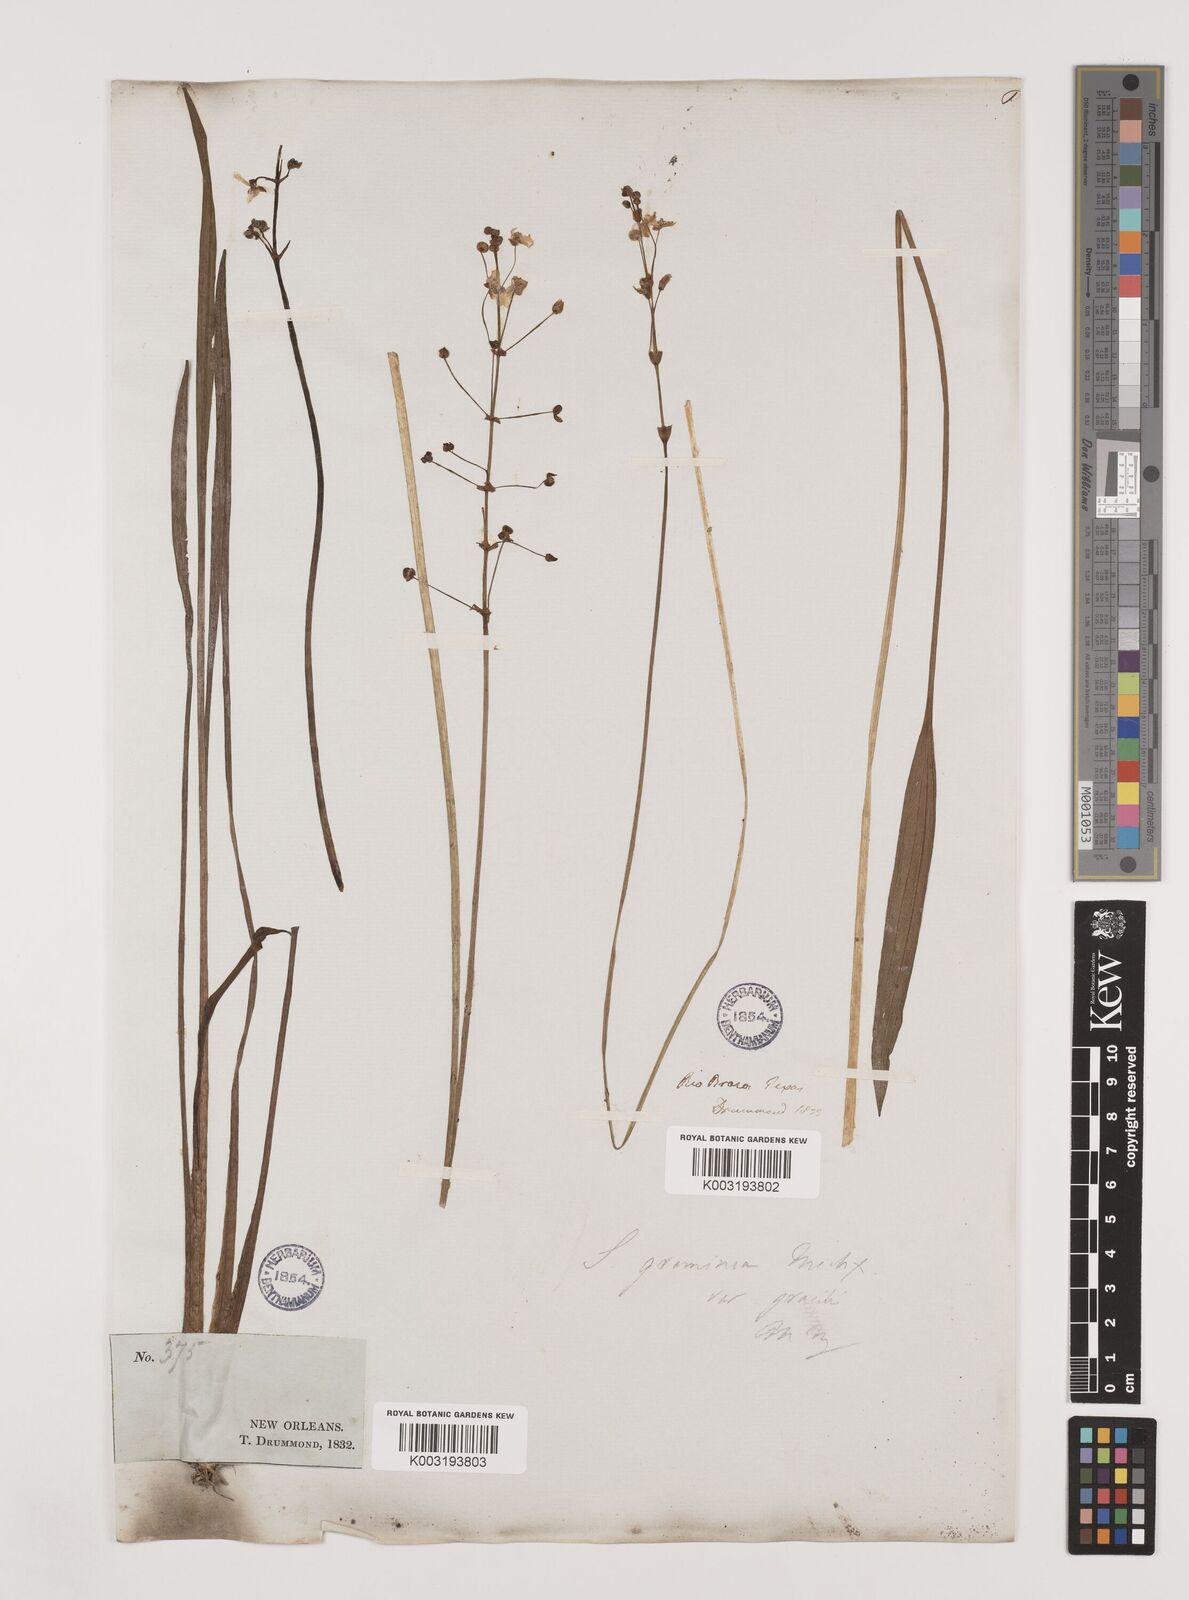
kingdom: Plantae
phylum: Tracheophyta
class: Liliopsida
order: Alismatales
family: Alismataceae
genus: Sagittaria
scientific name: Sagittaria graminea
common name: Grass-leaved arrowhead
